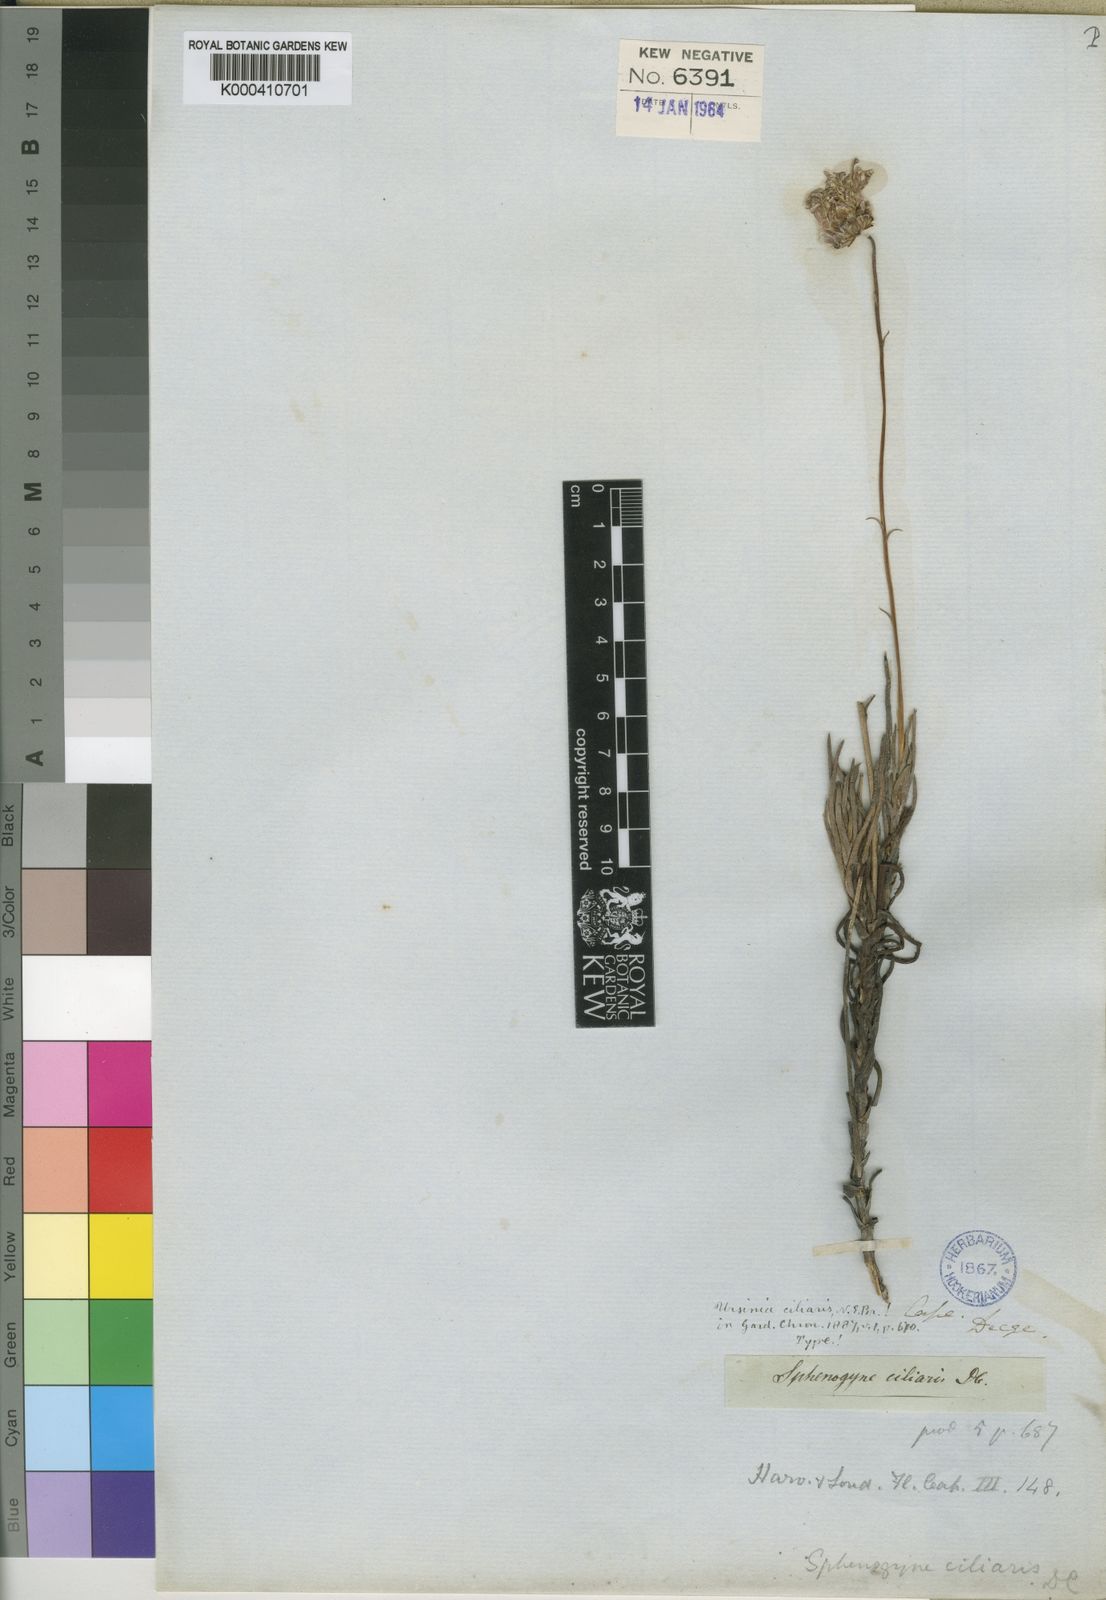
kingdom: Plantae
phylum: Tracheophyta
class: Magnoliopsida
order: Asterales
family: Asteraceae
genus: Ursinia
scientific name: Ursinia tenuifolia
